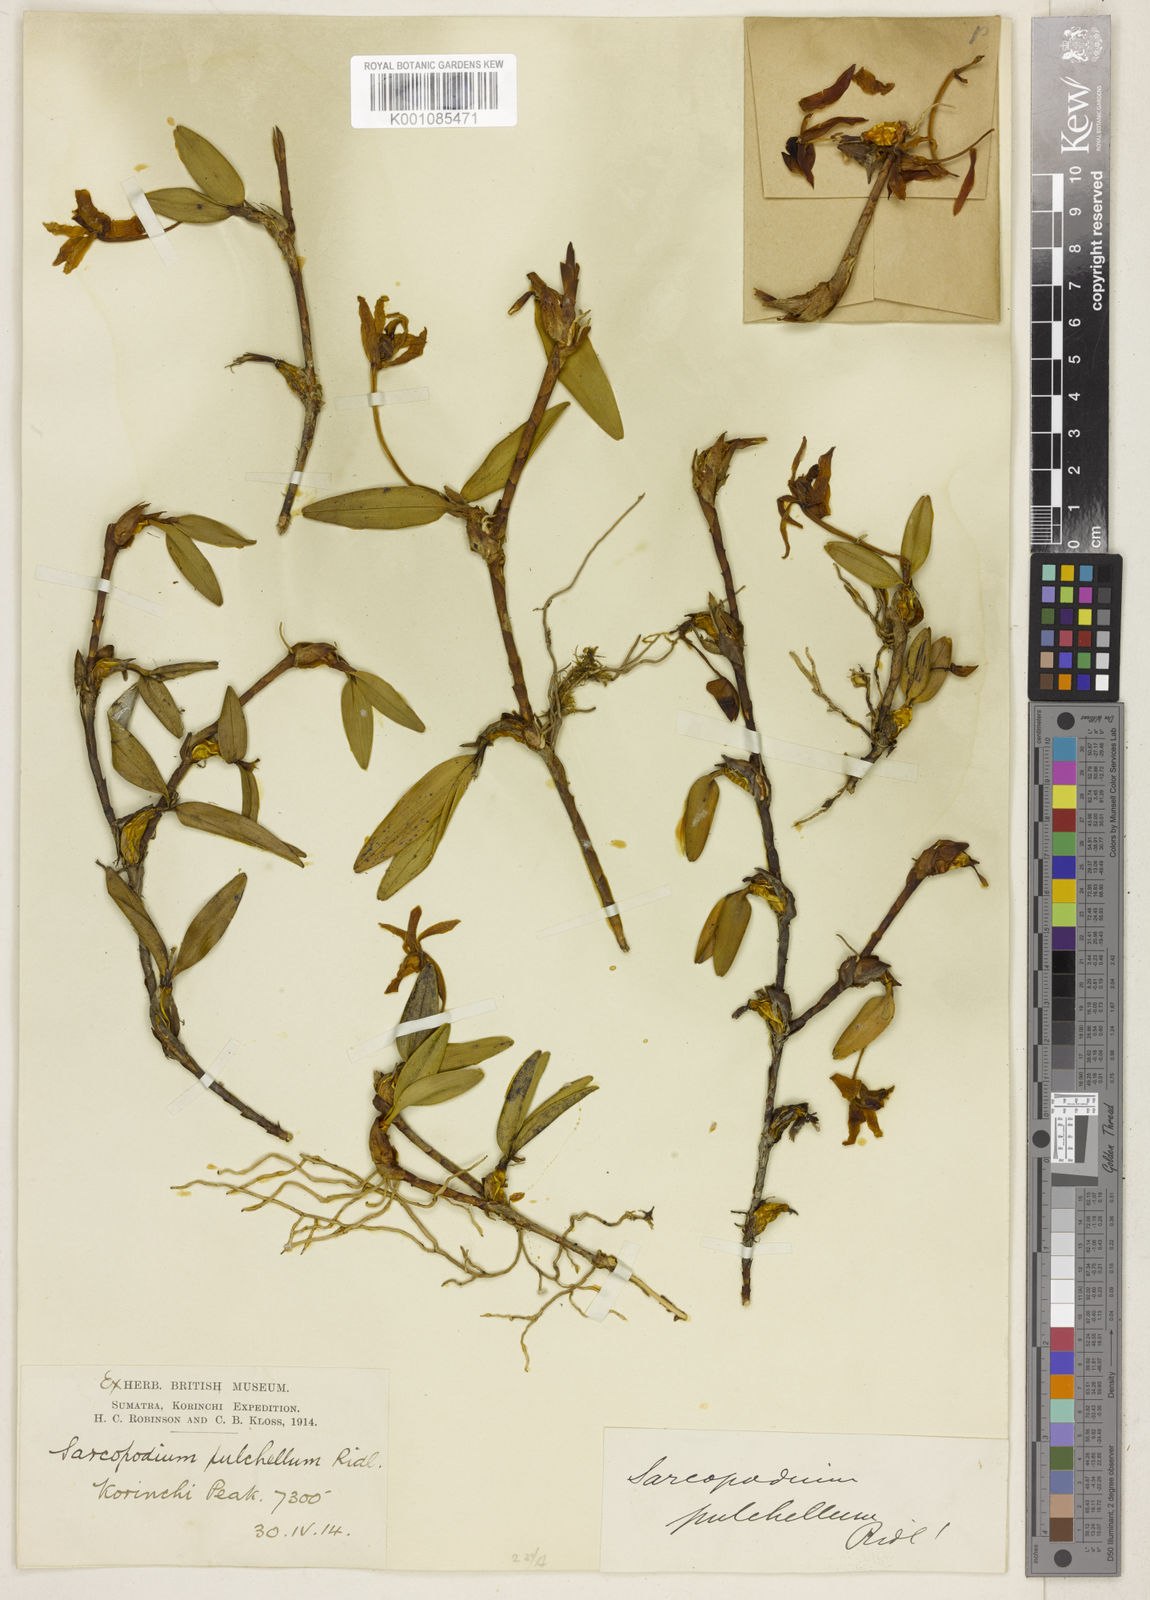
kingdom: Plantae
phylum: Tracheophyta
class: Liliopsida
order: Asparagales
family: Orchidaceae
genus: Dendrobium
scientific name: Dendrobium brevibulbum
